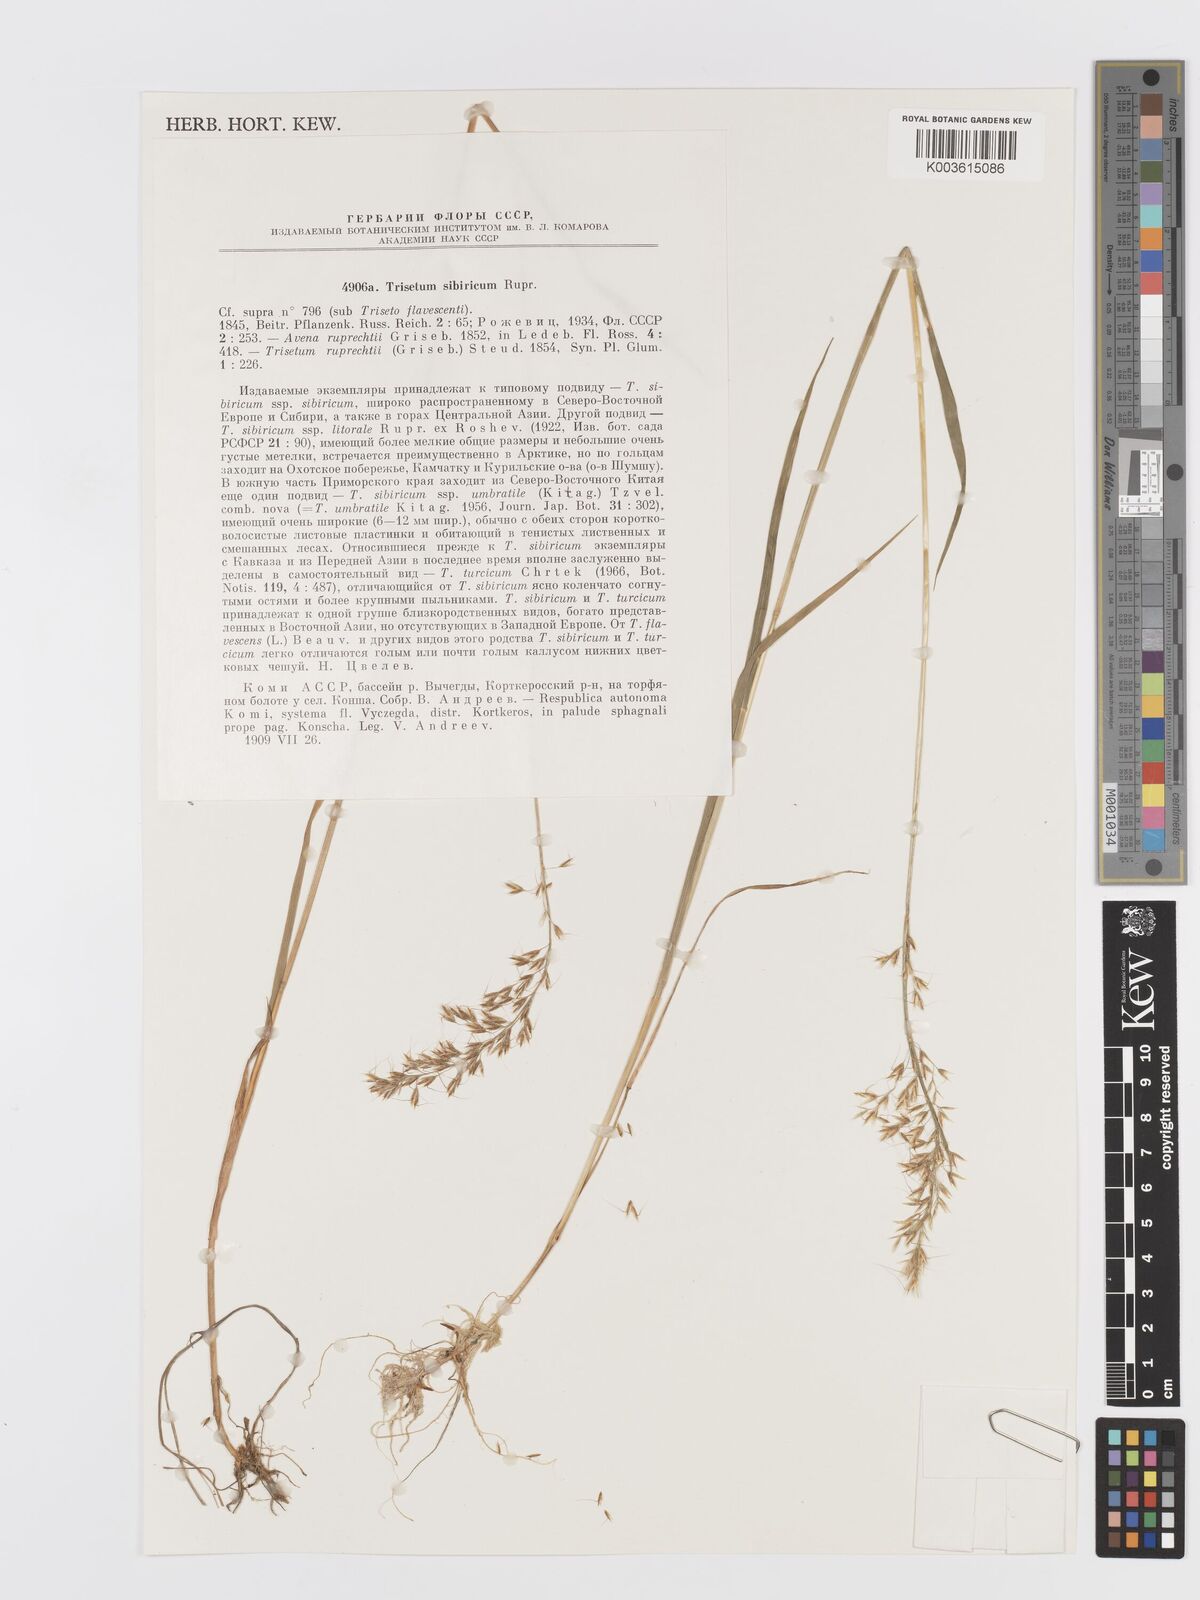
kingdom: Plantae
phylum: Tracheophyta
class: Liliopsida
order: Poales
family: Poaceae
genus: Sibirotrisetum
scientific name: Sibirotrisetum sibiricum
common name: Siberian false oat
